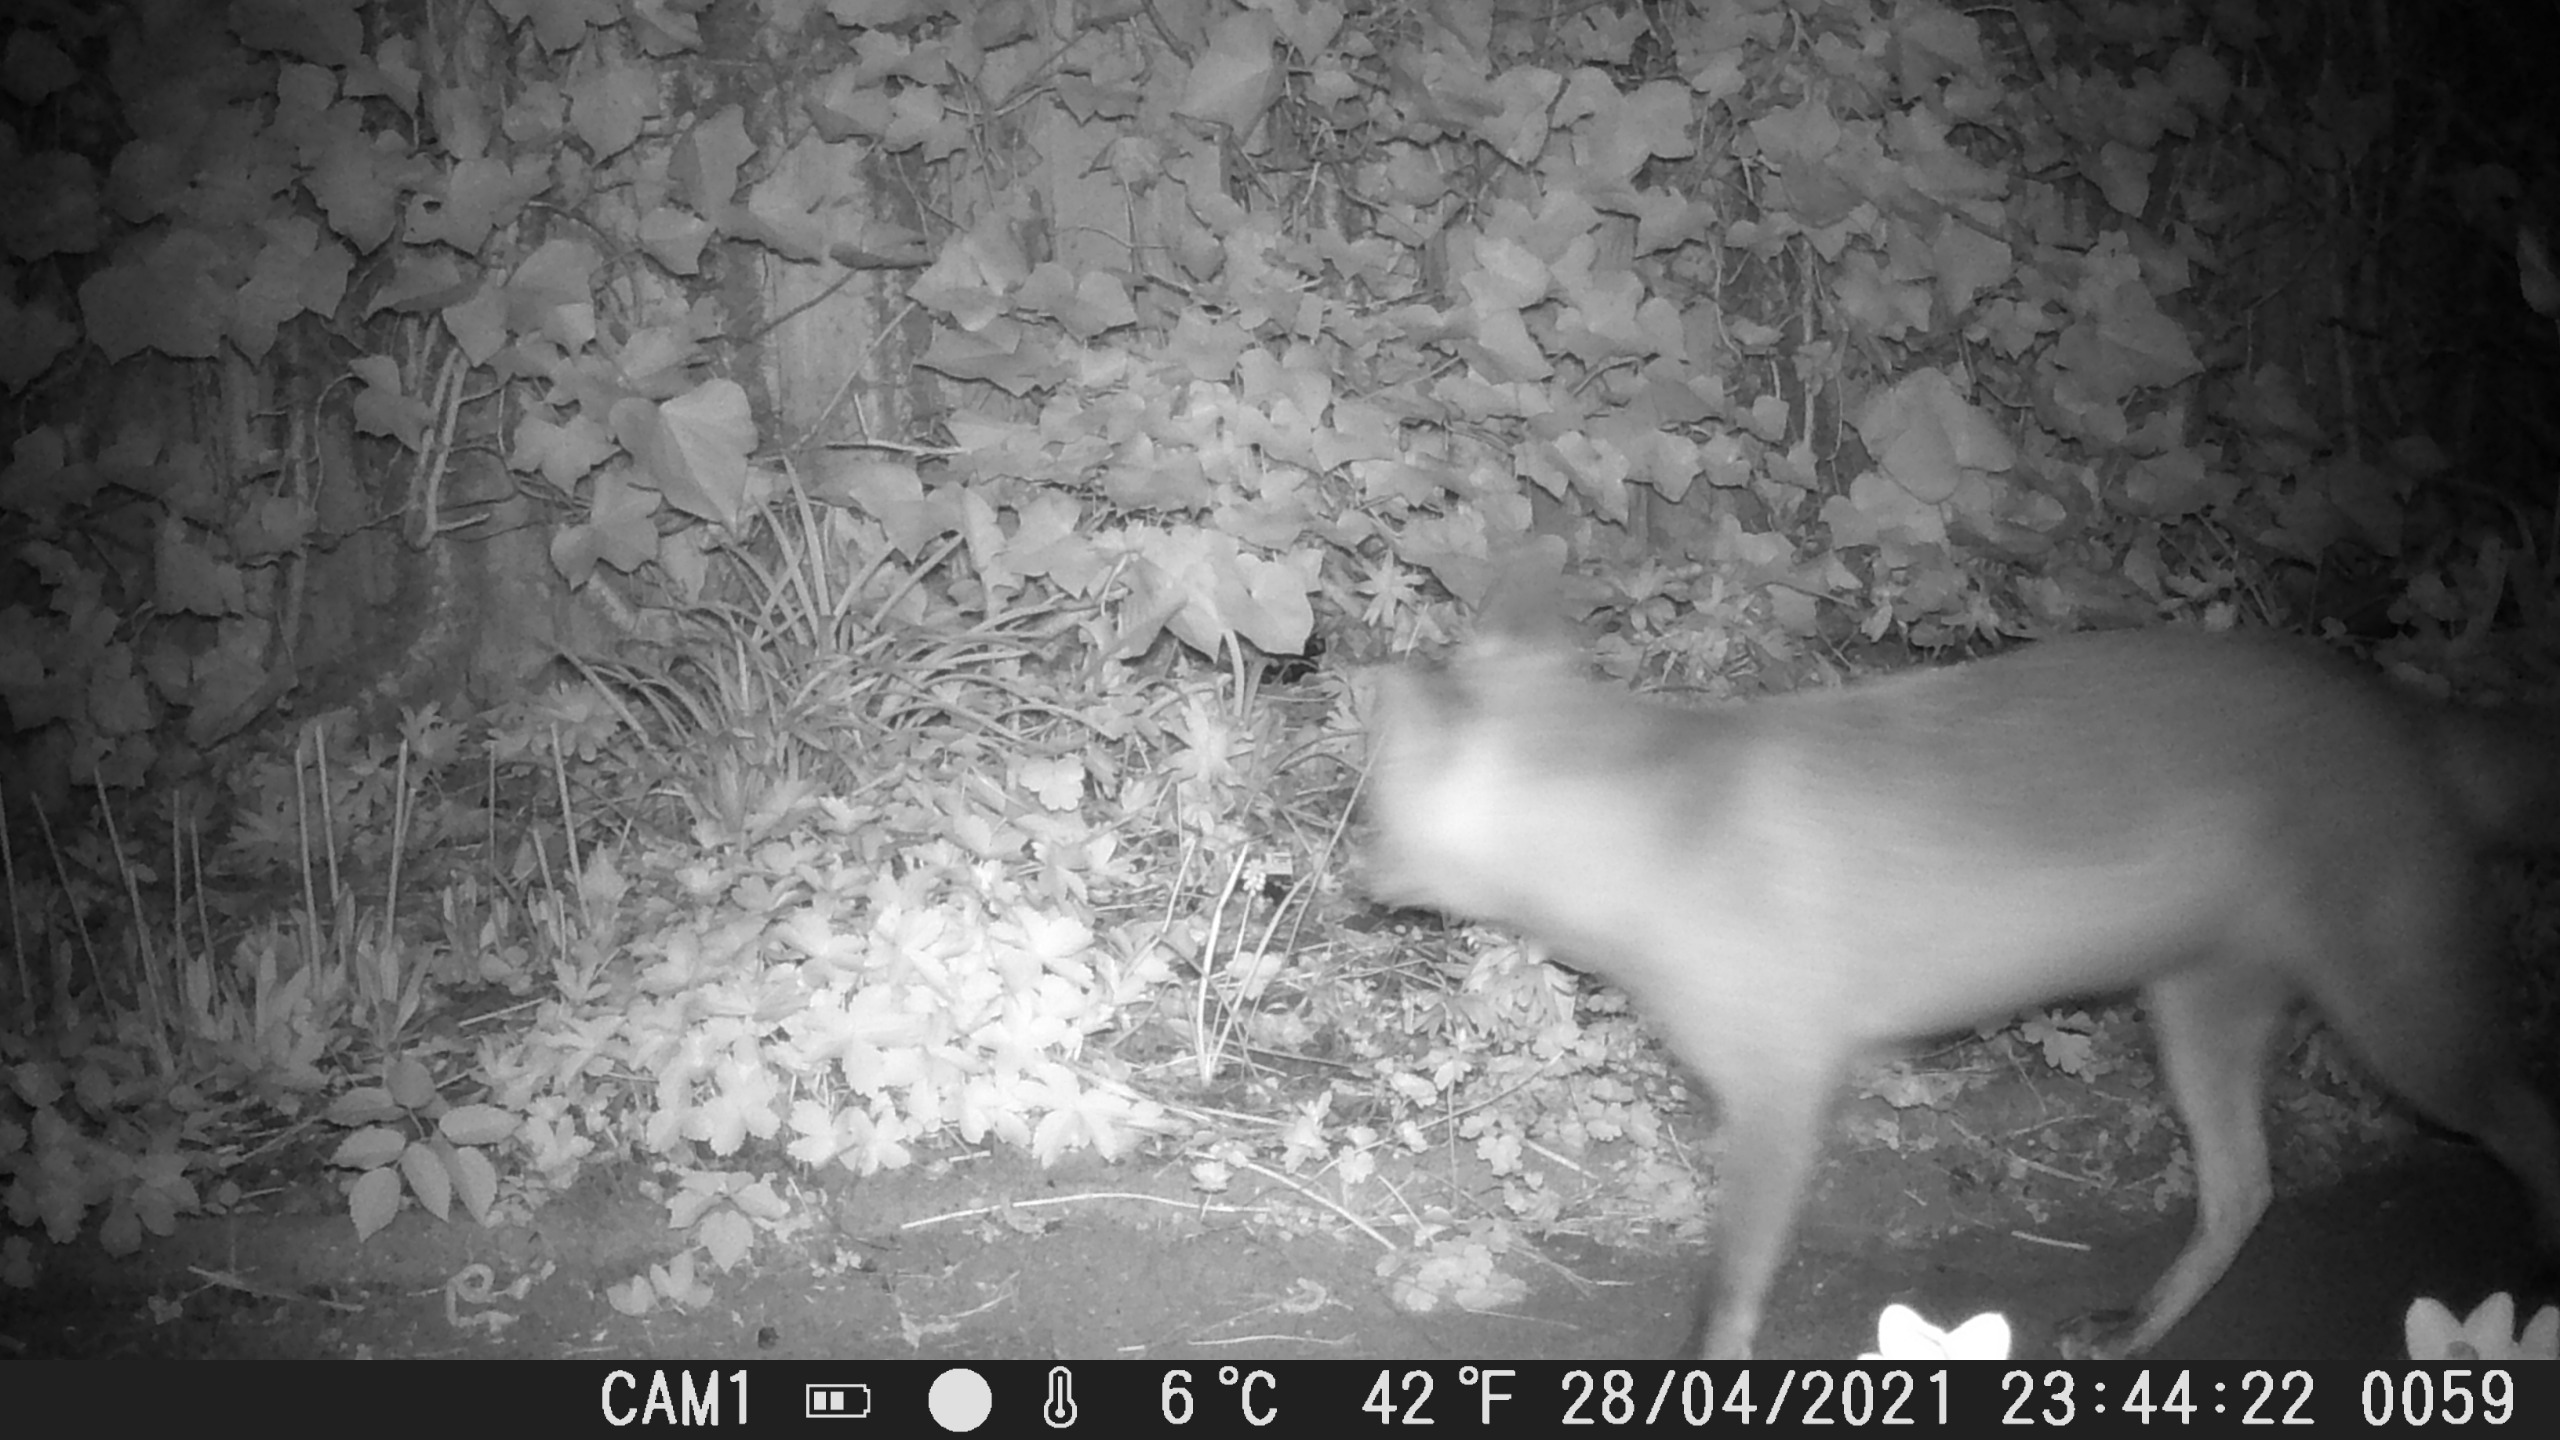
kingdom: Animalia
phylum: Chordata
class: Mammalia
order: Carnivora
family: Canidae
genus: Vulpes
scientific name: Vulpes vulpes
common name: Ræv
